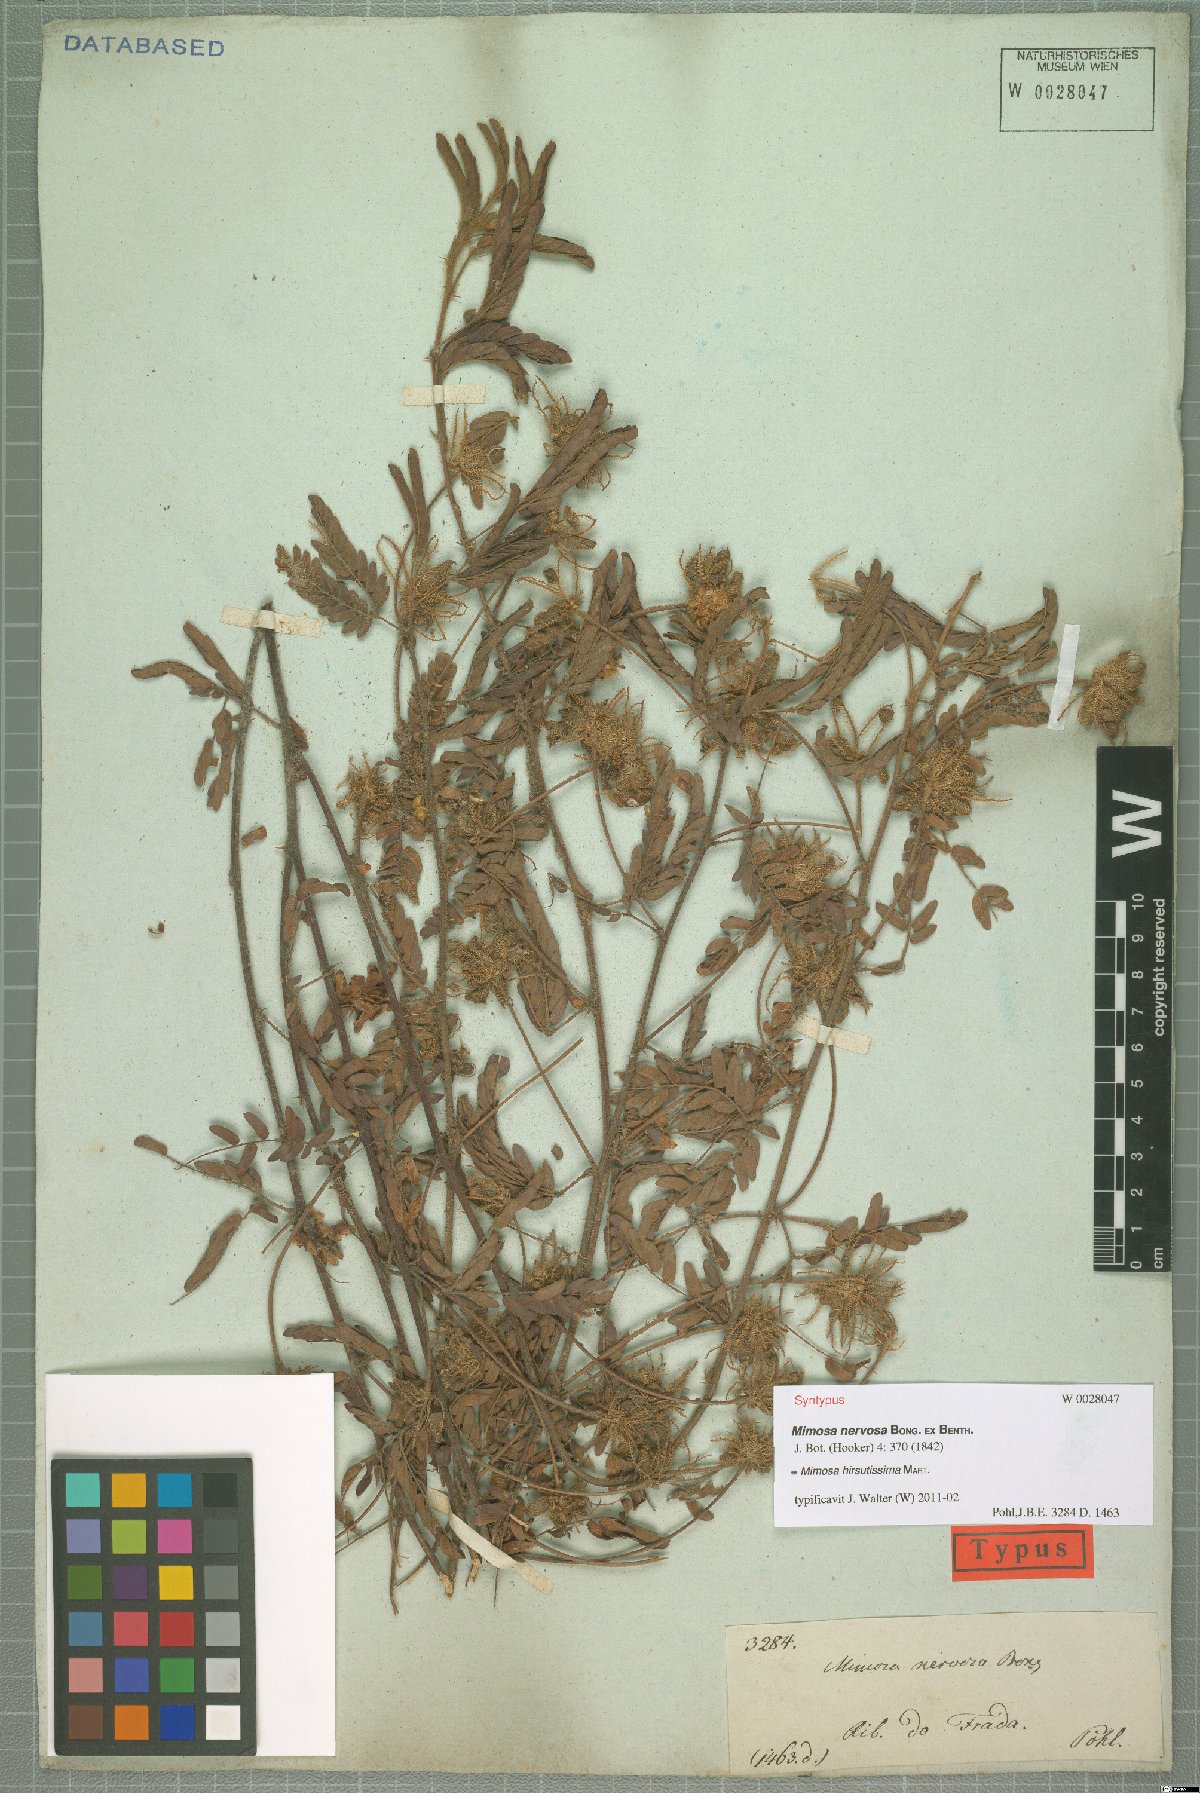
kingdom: Plantae
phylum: Tracheophyta
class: Magnoliopsida
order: Fabales
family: Fabaceae
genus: Mimosa
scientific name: Mimosa hirsutissima
